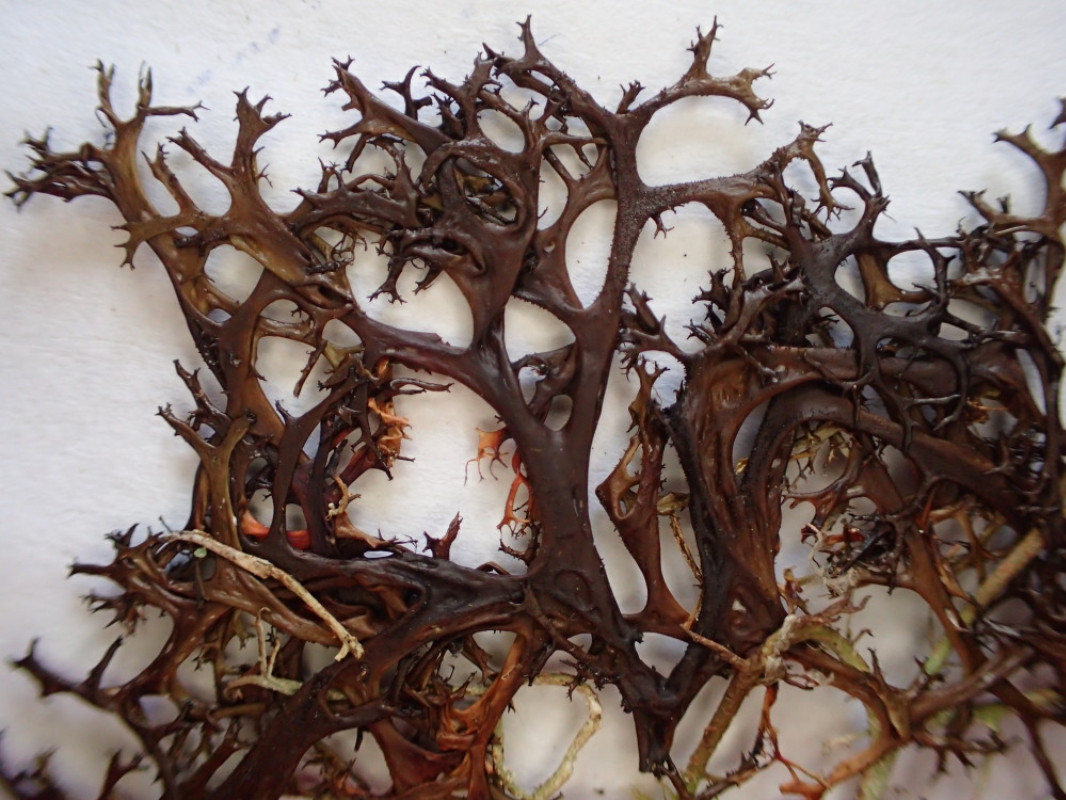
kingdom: Fungi
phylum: Ascomycota
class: Lecanoromycetes
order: Lecanorales
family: Parmeliaceae
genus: Cetraria
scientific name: Cetraria aculeata
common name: grubet tjørnelav
